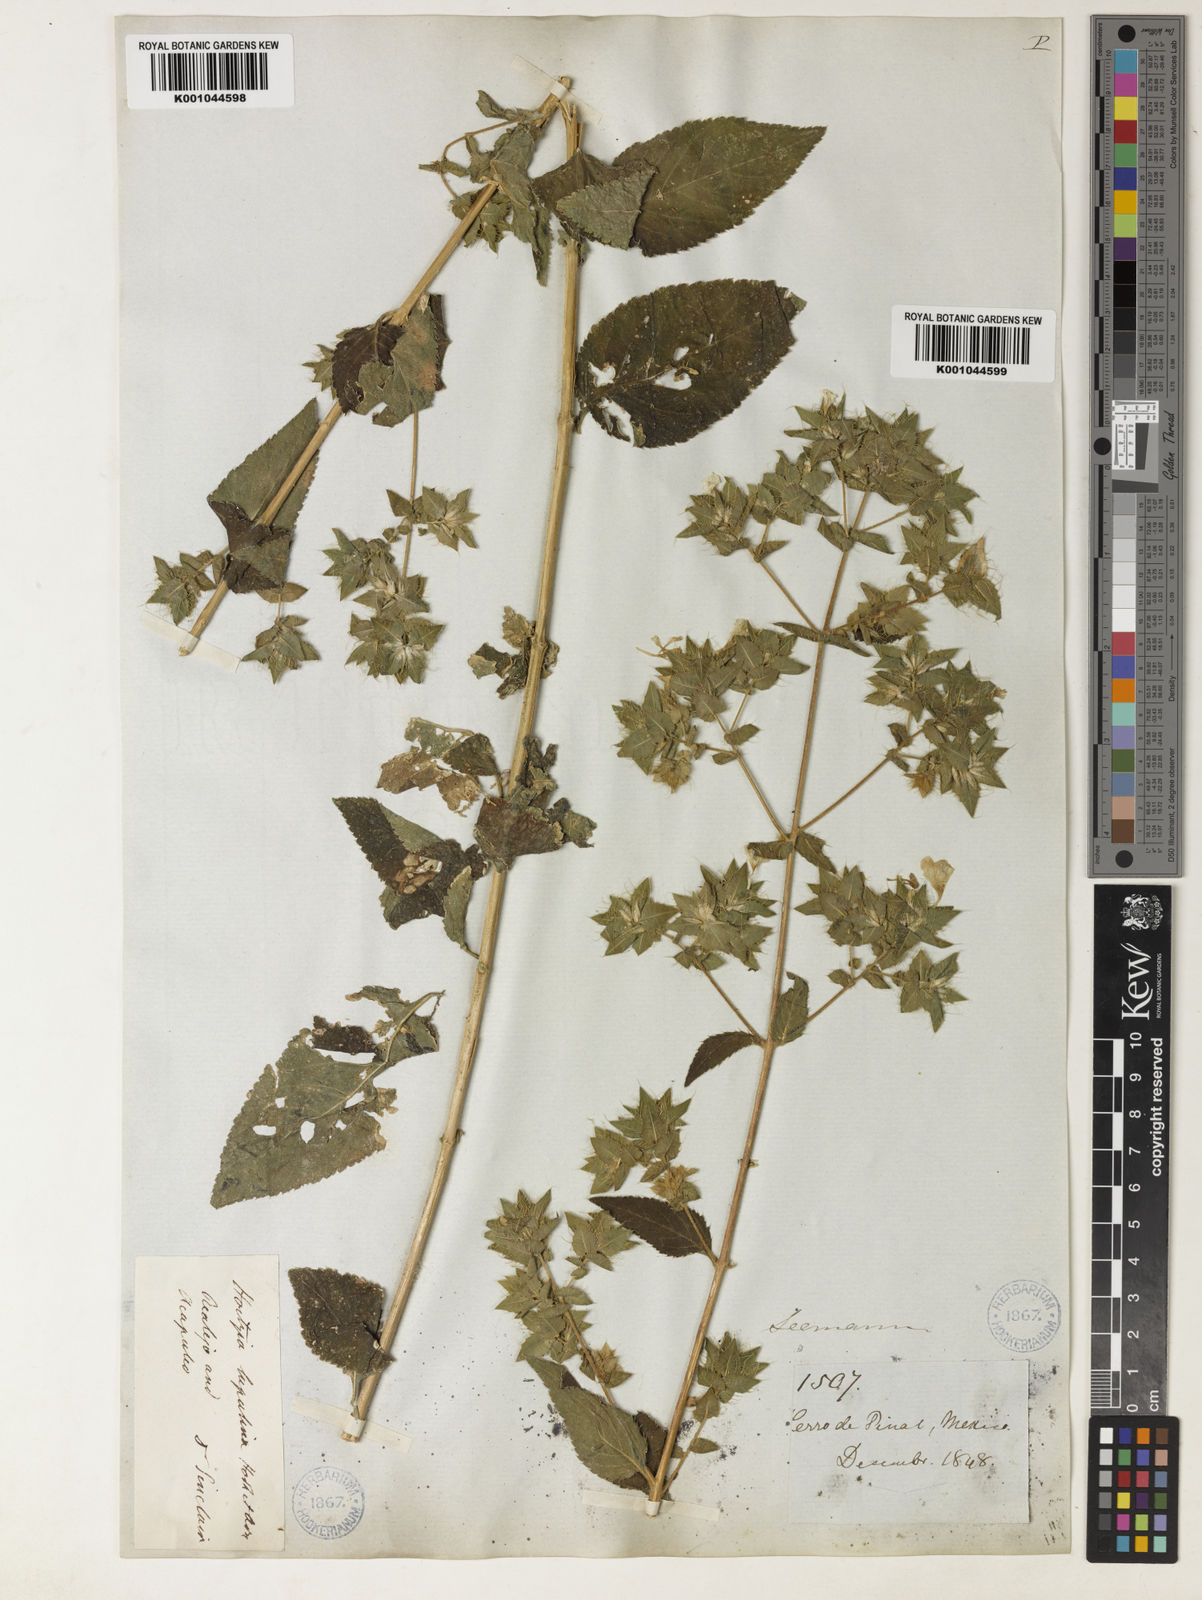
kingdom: Plantae
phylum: Tracheophyta
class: Magnoliopsida
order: Ericales
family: Polemoniaceae
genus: Loeselia
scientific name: Loeselia ciliata
